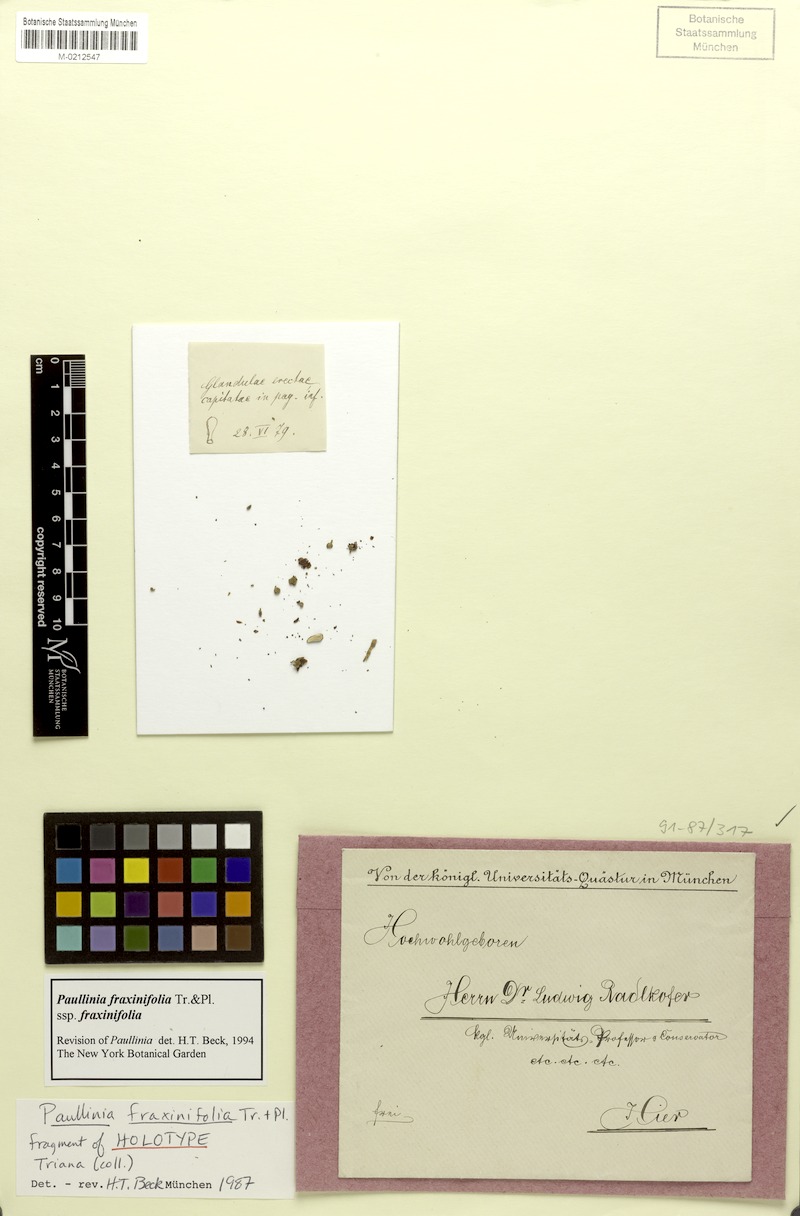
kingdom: Plantae
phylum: Tracheophyta
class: Magnoliopsida
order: Sapindales
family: Sapindaceae
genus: Paullinia
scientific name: Paullinia fraxinifolia
